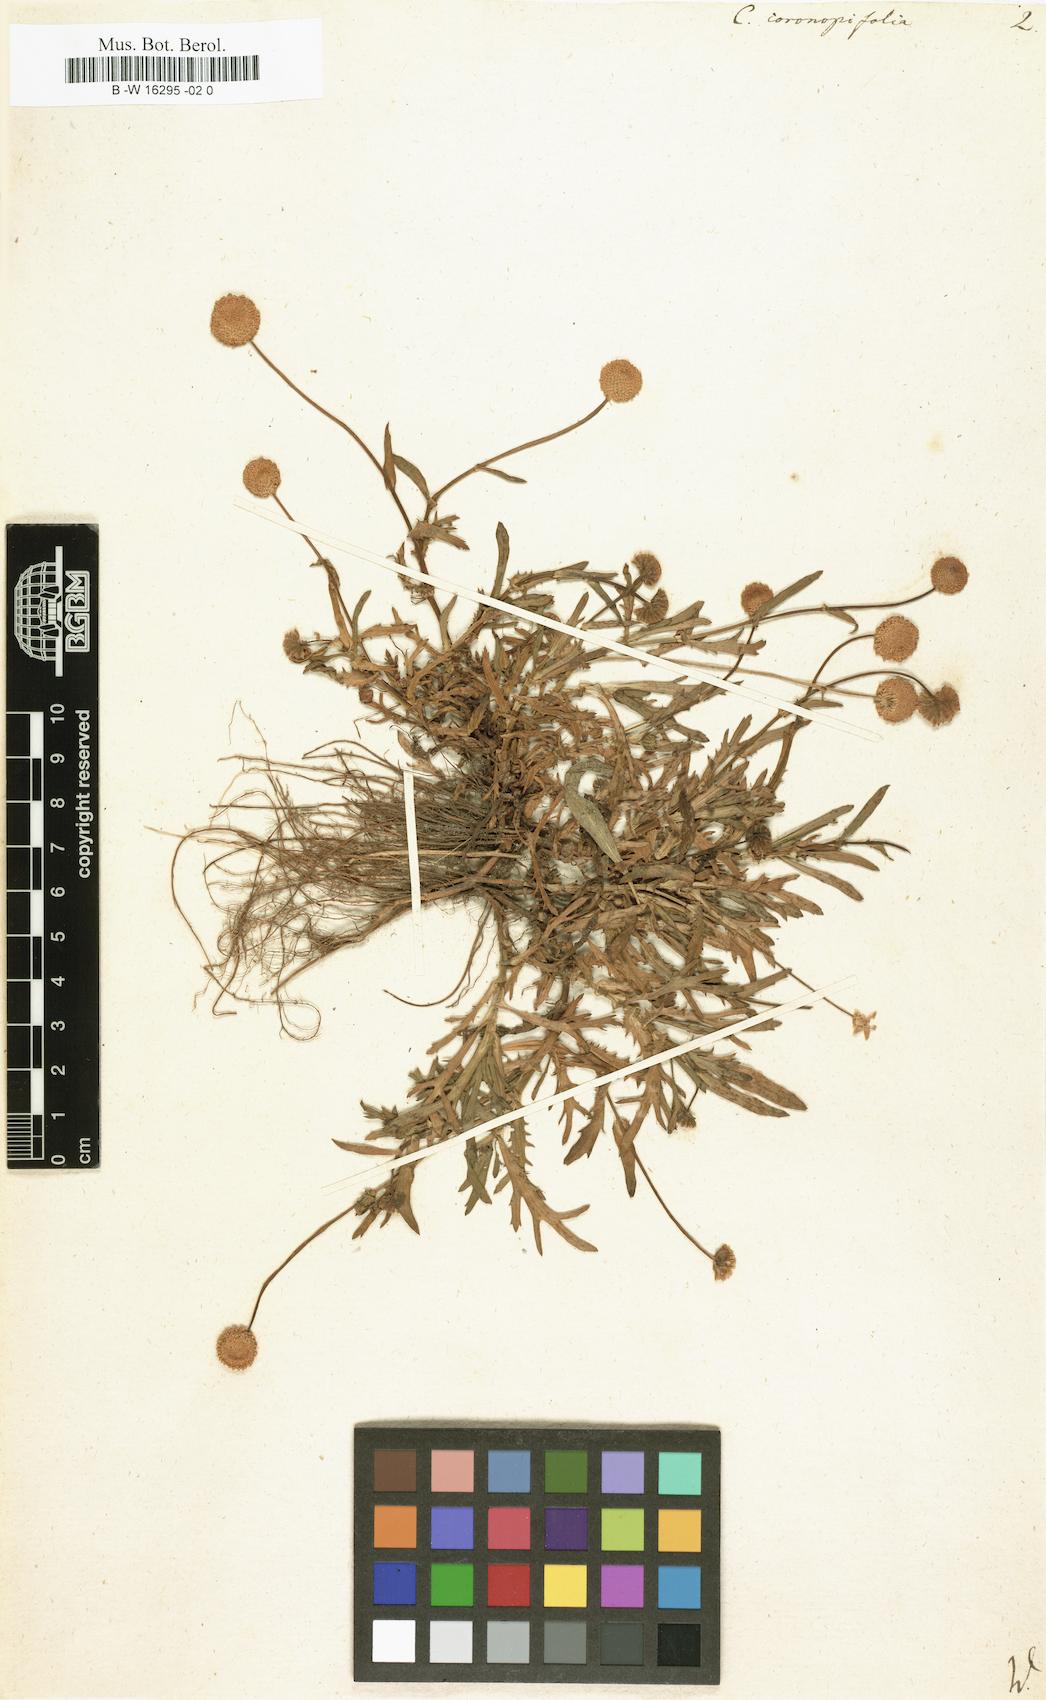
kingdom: Plantae
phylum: Tracheophyta
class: Magnoliopsida
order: Asterales
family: Asteraceae
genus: Cotula
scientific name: Cotula coronopifolia
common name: Buttonweed
